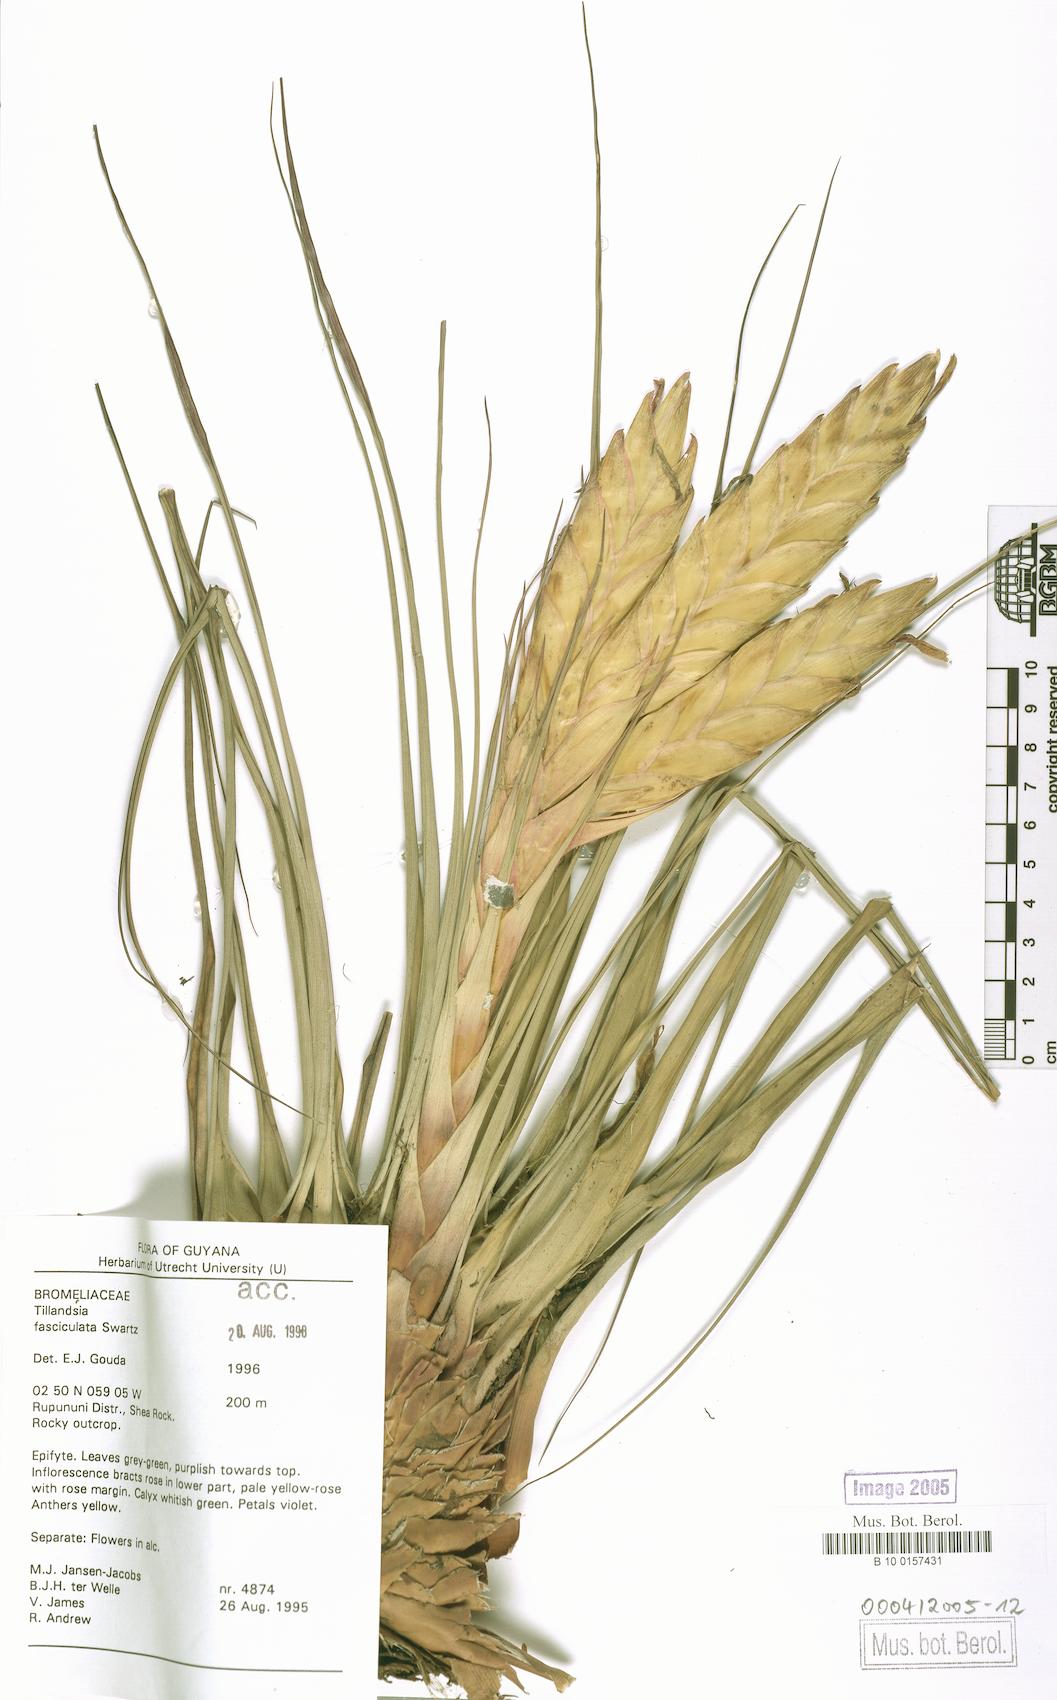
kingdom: Plantae
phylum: Tracheophyta
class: Liliopsida
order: Poales
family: Bromeliaceae
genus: Tillandsia
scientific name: Tillandsia fasciculata
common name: Giant airplant
